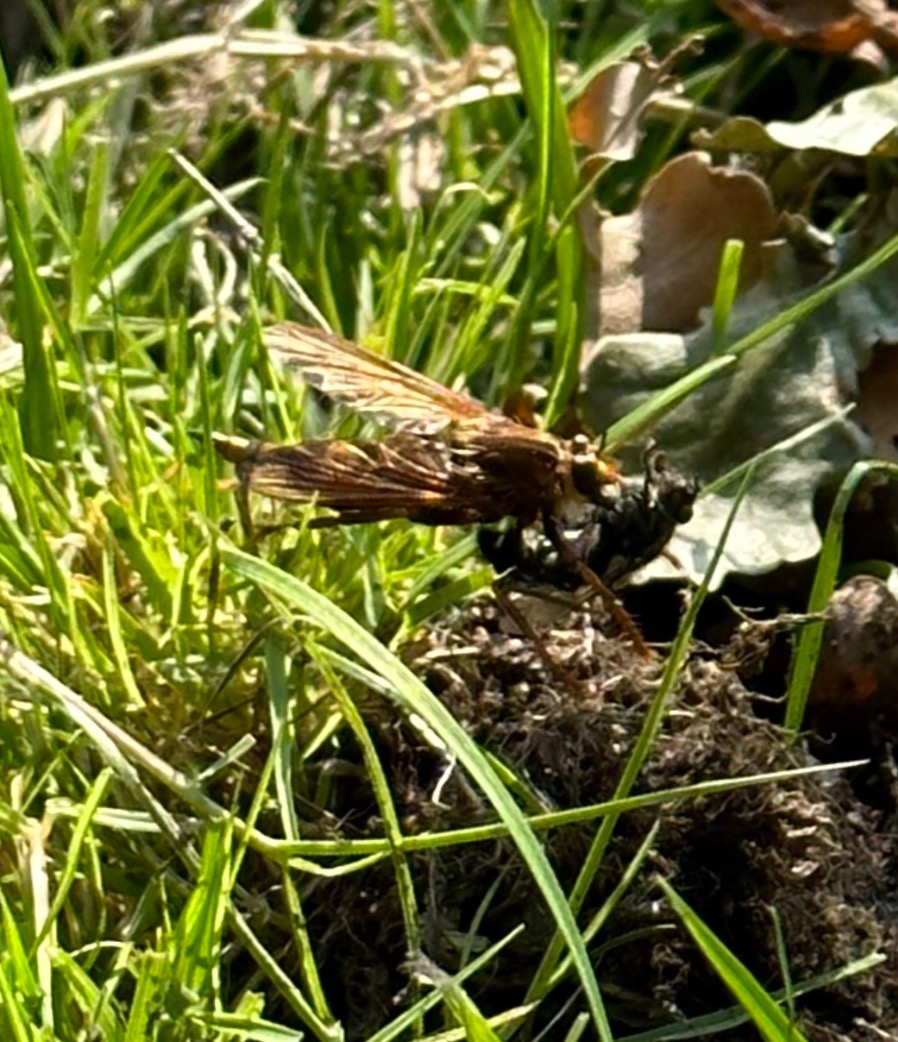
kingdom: Animalia
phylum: Arthropoda
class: Insecta
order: Diptera
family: Asilidae
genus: Asilus
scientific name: Asilus crabroniformis
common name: Stor gødningsrovflue
